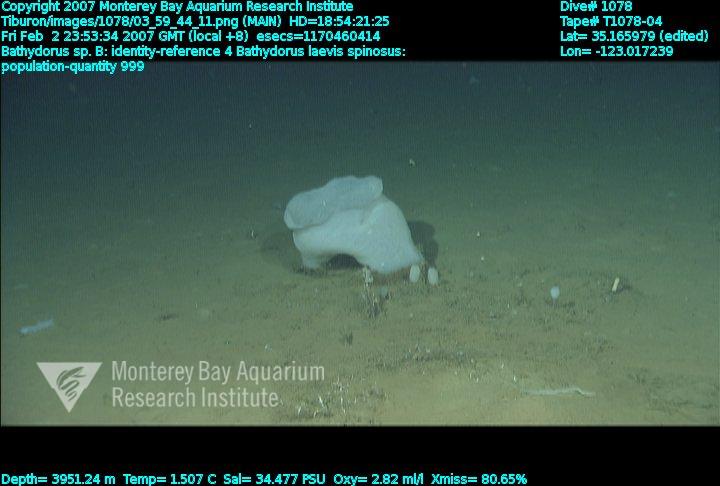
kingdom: Animalia
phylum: Porifera
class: Hexactinellida
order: Lyssacinosida
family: Rossellidae
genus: Bathydorus
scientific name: Bathydorus spinosus
